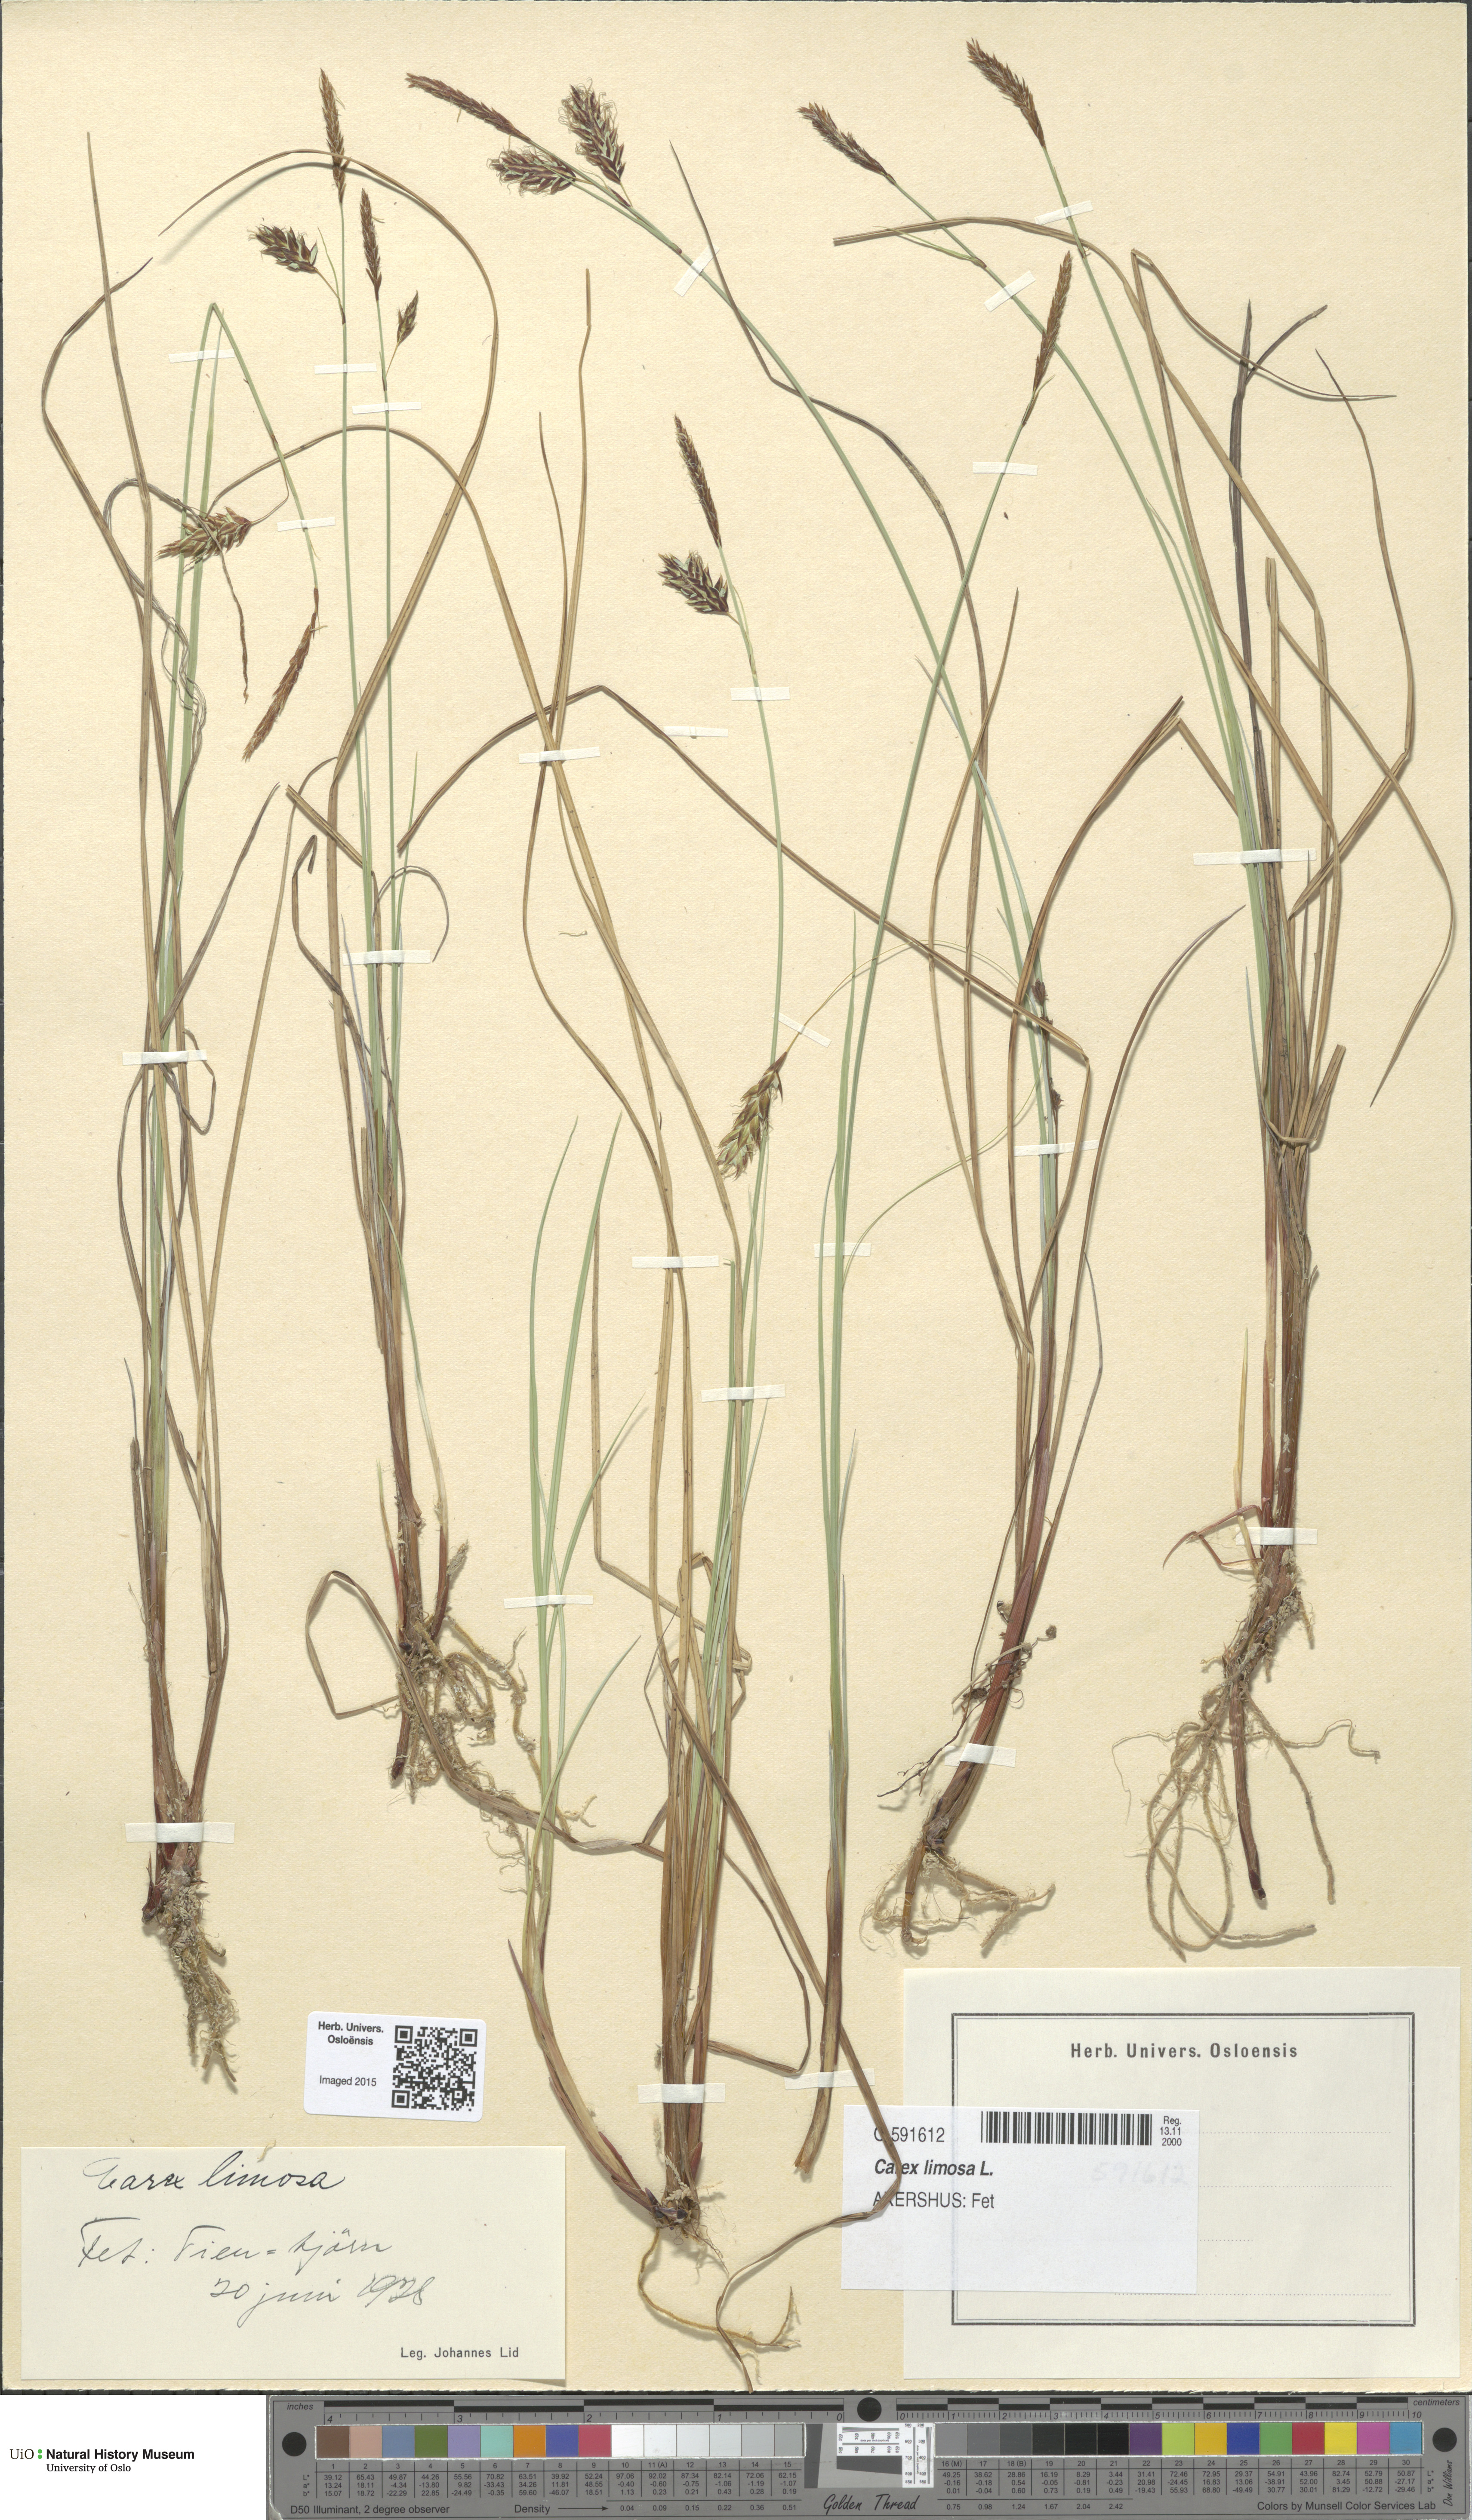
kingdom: Plantae
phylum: Tracheophyta
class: Liliopsida
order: Poales
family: Cyperaceae
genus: Carex
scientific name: Carex limosa
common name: Bog sedge
